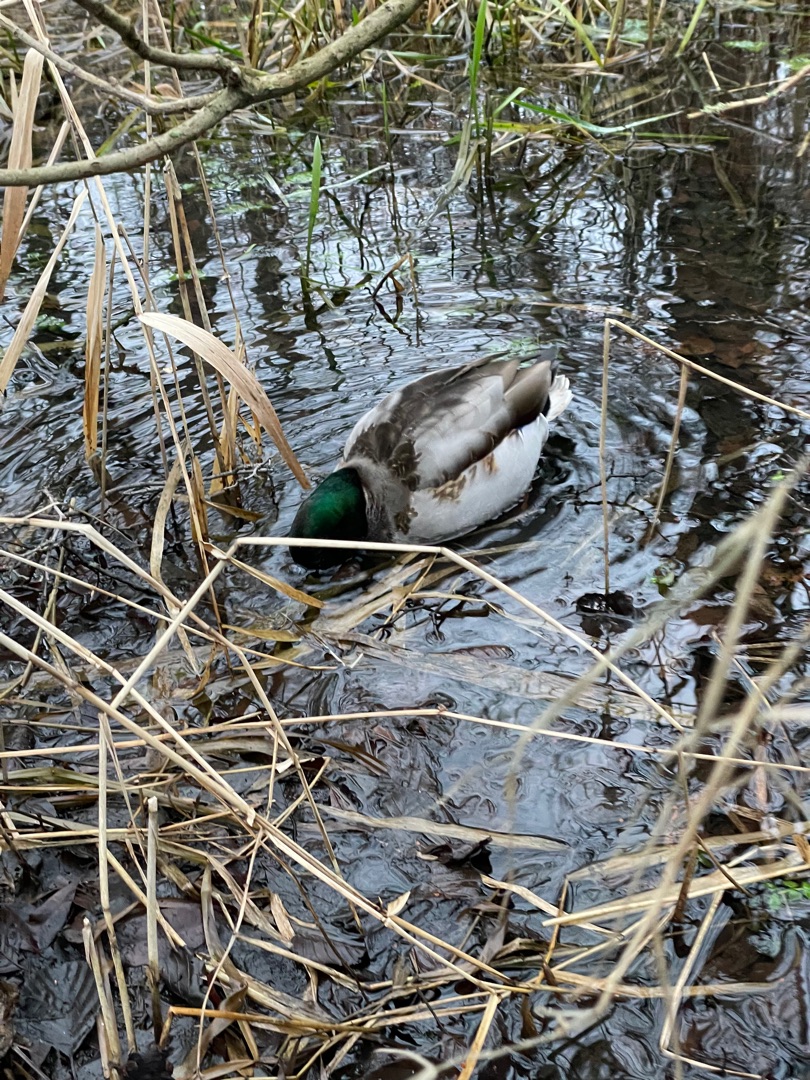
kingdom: Animalia
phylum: Chordata
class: Aves
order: Anseriformes
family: Anatidae
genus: Anas
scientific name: Anas platyrhynchos
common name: Gråand
